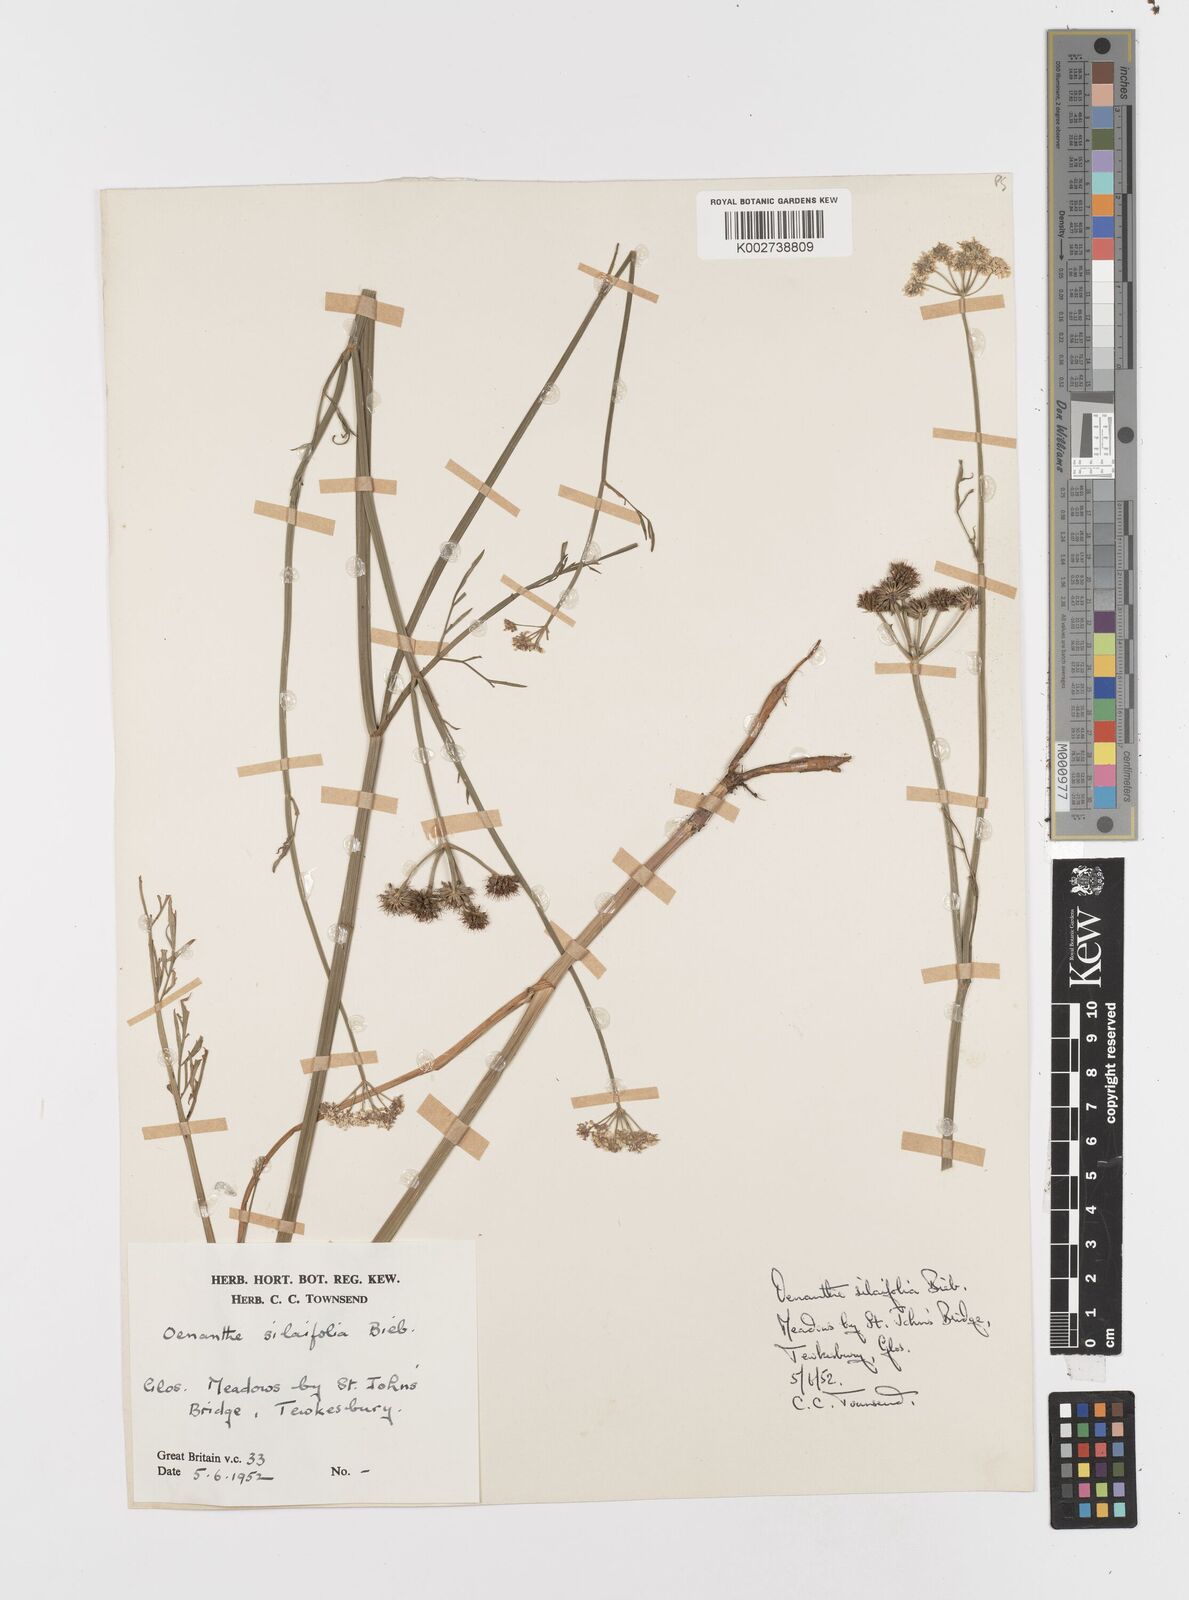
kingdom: Plantae
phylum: Tracheophyta
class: Magnoliopsida
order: Apiales
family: Apiaceae
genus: Oenanthe
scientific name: Oenanthe silaifolia
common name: Narrow-leaved water-dropwort
